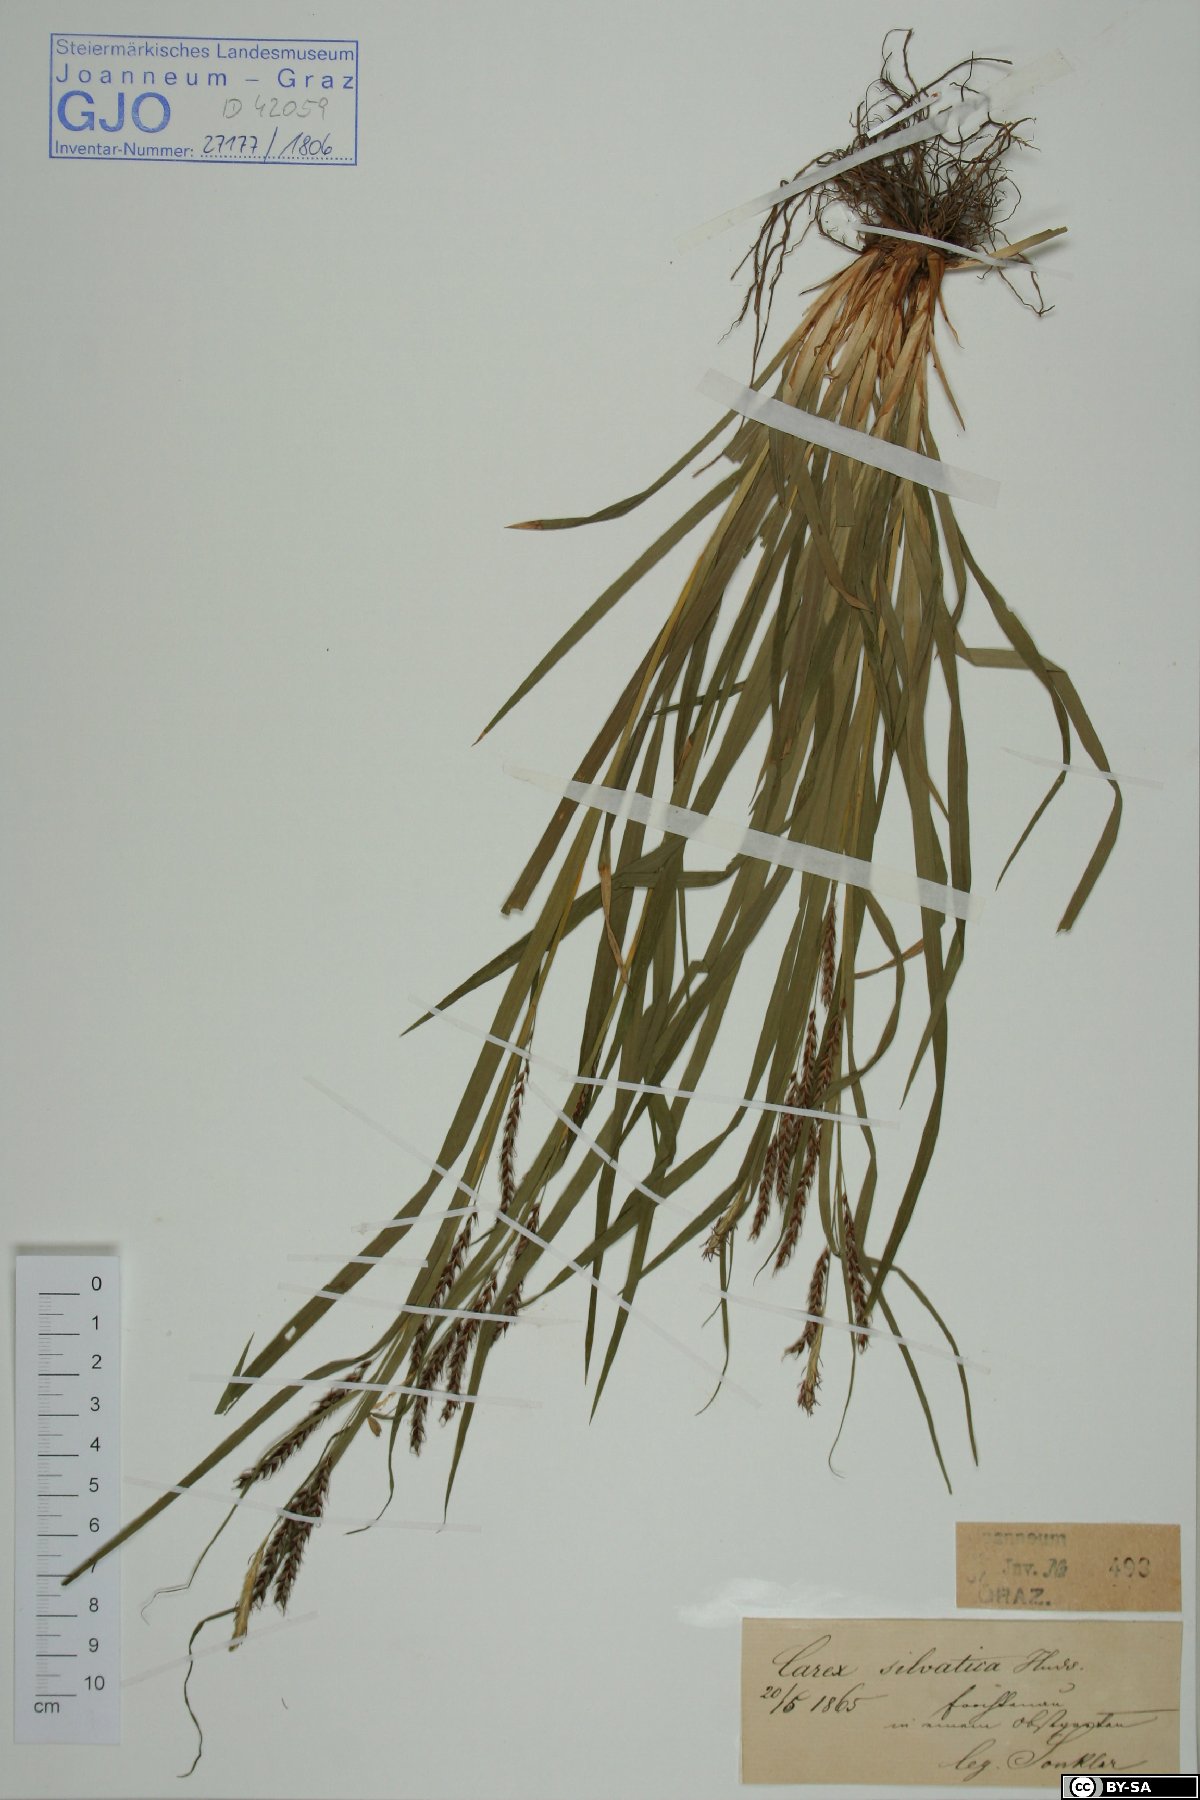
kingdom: Plantae
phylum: Tracheophyta
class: Liliopsida
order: Poales
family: Cyperaceae
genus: Carex
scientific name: Carex sylvatica
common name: Wood-sedge
